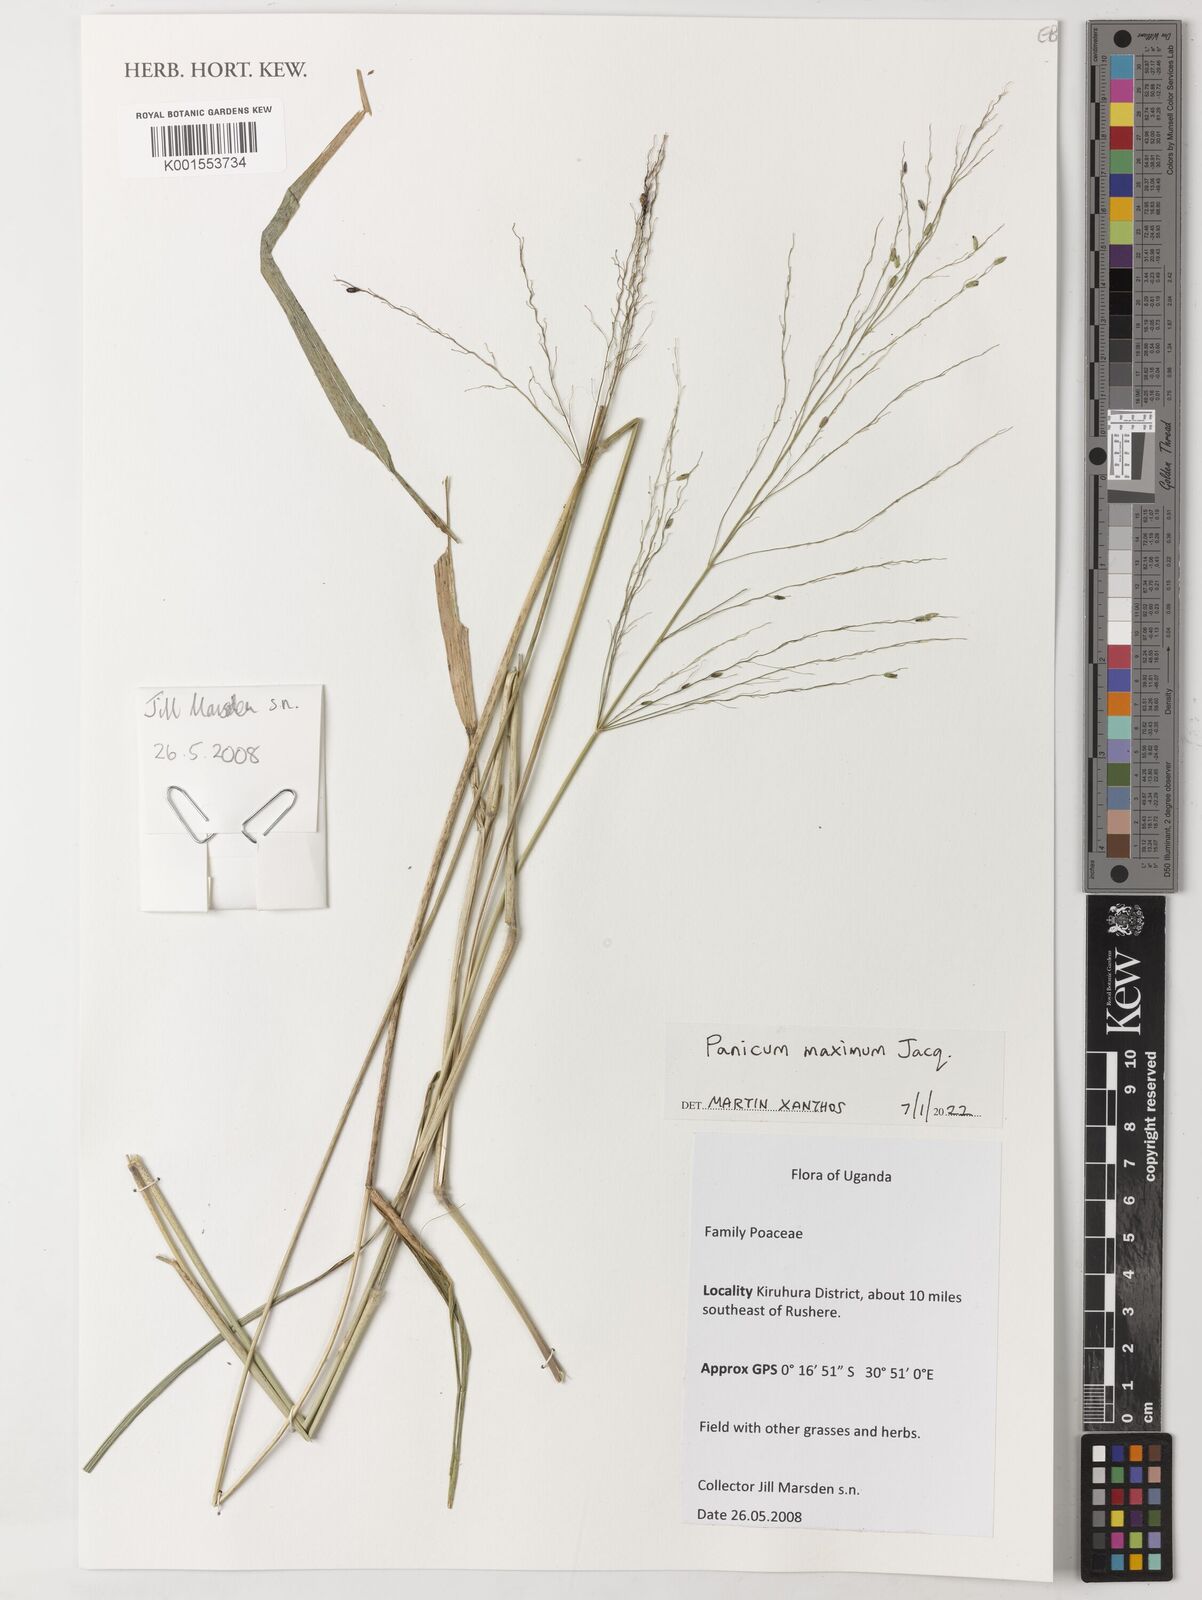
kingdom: Plantae
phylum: Tracheophyta
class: Liliopsida
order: Poales
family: Poaceae
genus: Megathyrsus
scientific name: Megathyrsus maximus
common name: Guineagrass
